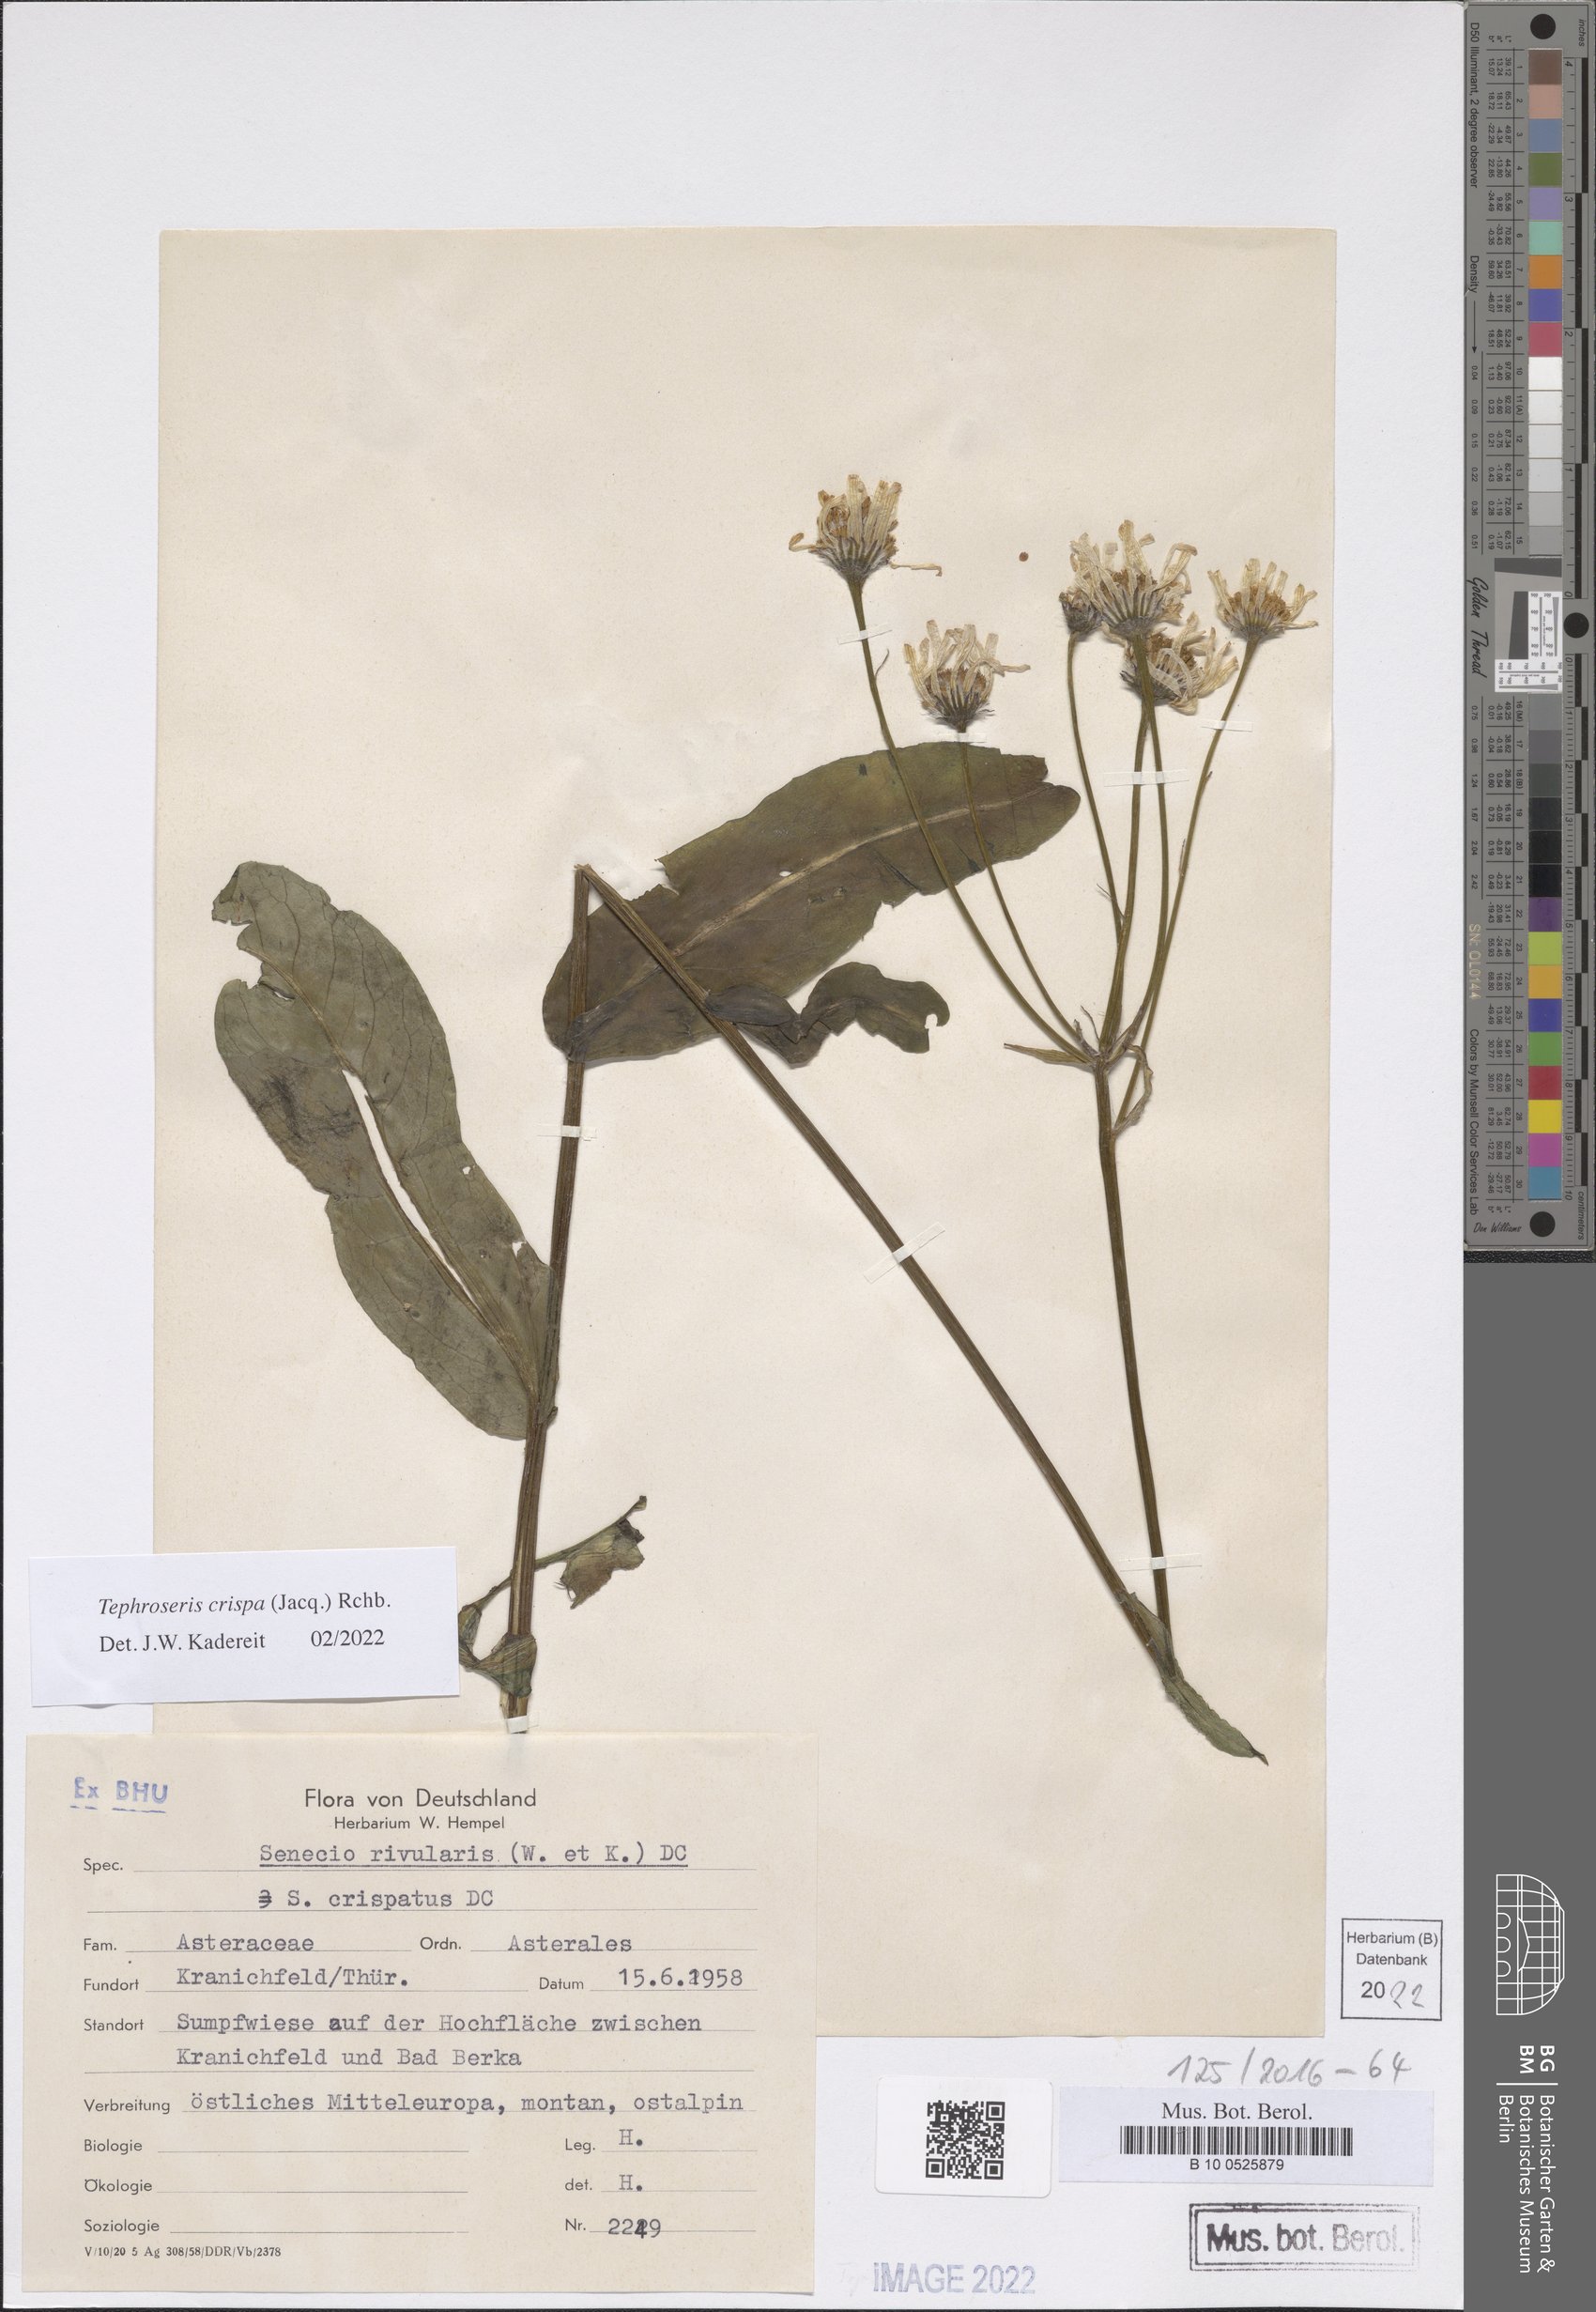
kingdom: Plantae
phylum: Tracheophyta
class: Magnoliopsida
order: Asterales
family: Asteraceae
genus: Tephroseris
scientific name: Tephroseris crispa
